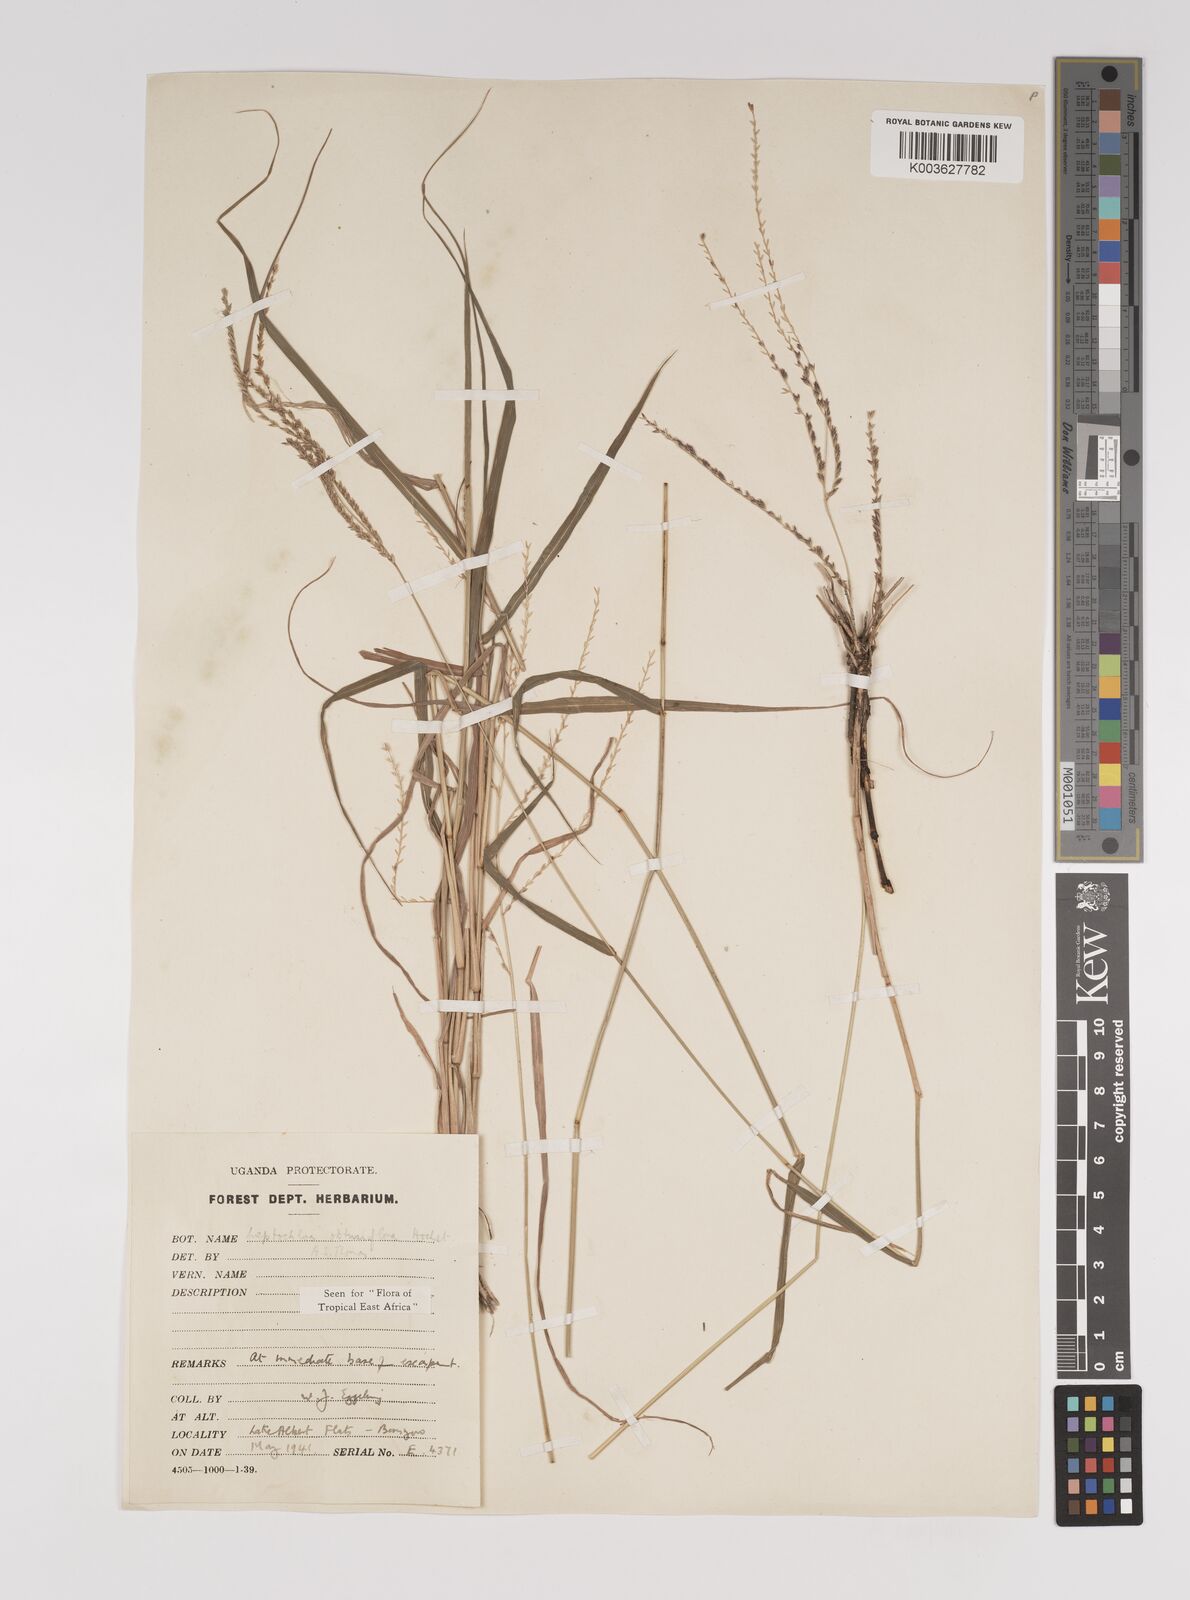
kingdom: Plantae
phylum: Tracheophyta
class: Liliopsida
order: Poales
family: Poaceae
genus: Disakisperma
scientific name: Disakisperma obtusiflorum
